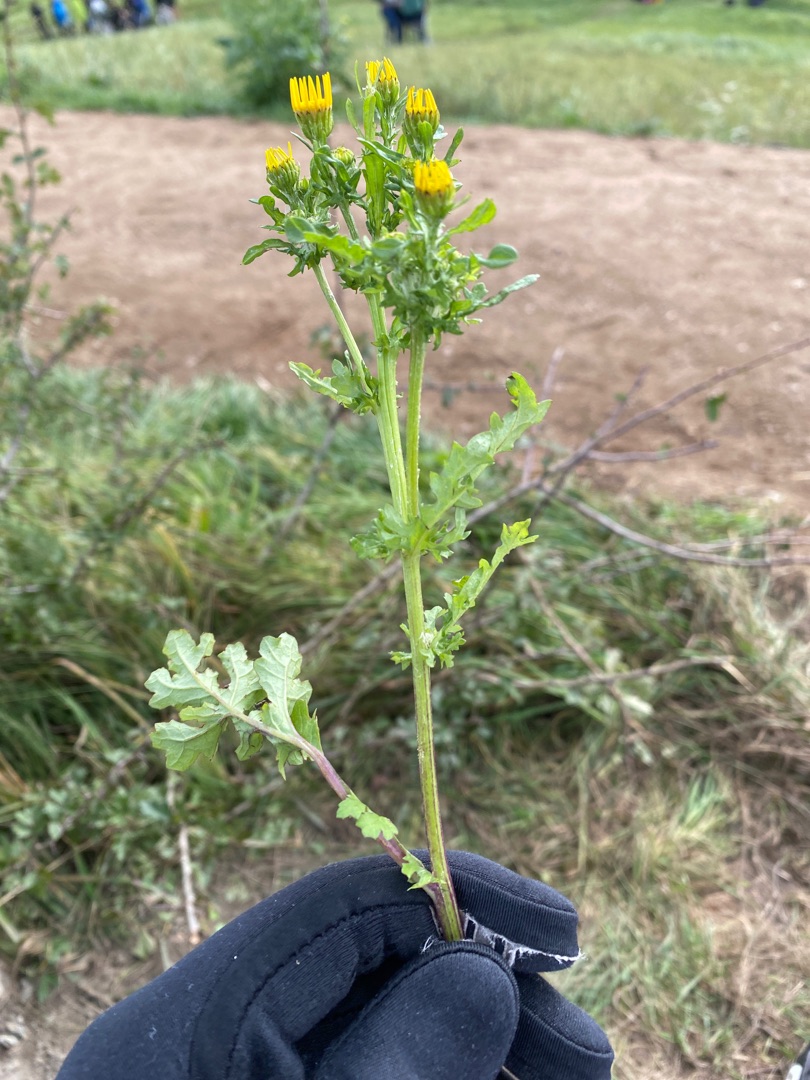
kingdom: Plantae
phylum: Tracheophyta
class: Magnoliopsida
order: Asterales
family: Asteraceae
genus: Jacobaea
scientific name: Jacobaea vulgaris
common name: Eng-brandbæger
